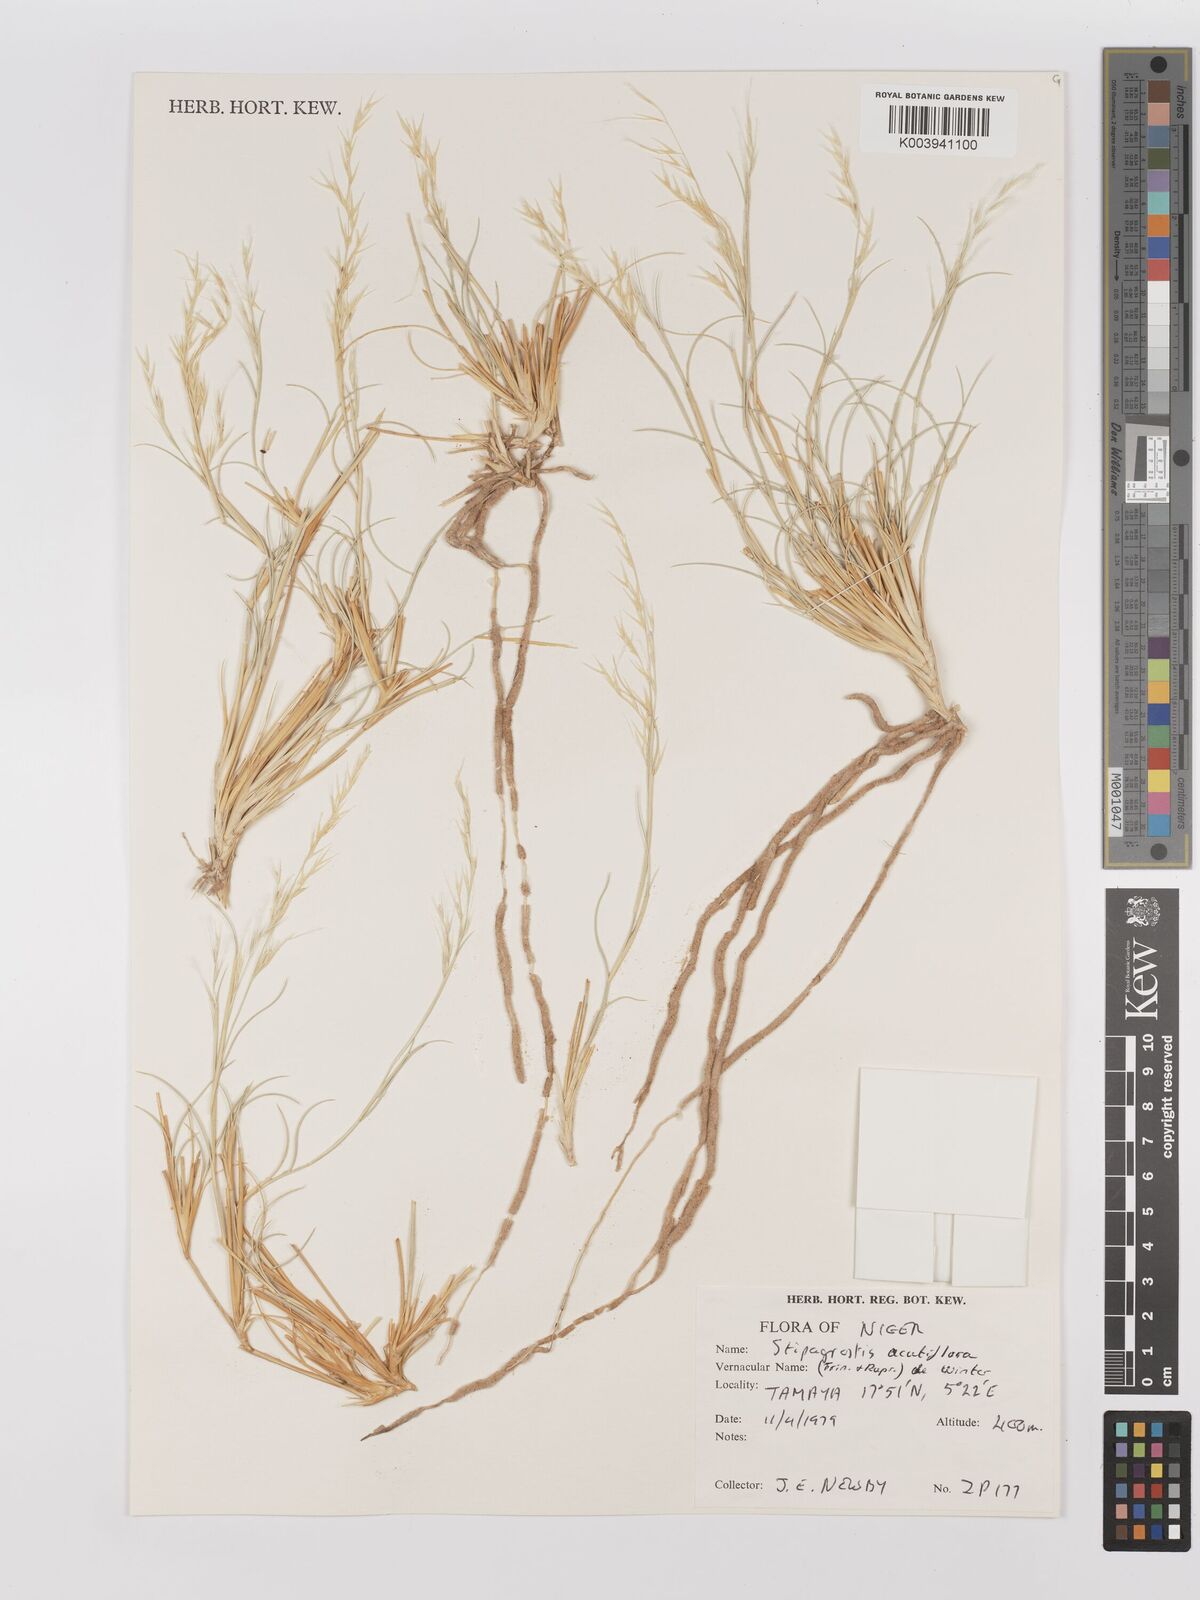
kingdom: Plantae
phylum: Tracheophyta
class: Liliopsida
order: Poales
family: Poaceae
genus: Stipagrostis
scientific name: Stipagrostis acutiflora
